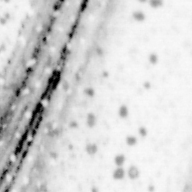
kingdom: Animalia
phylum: Chordata
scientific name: Chordata
